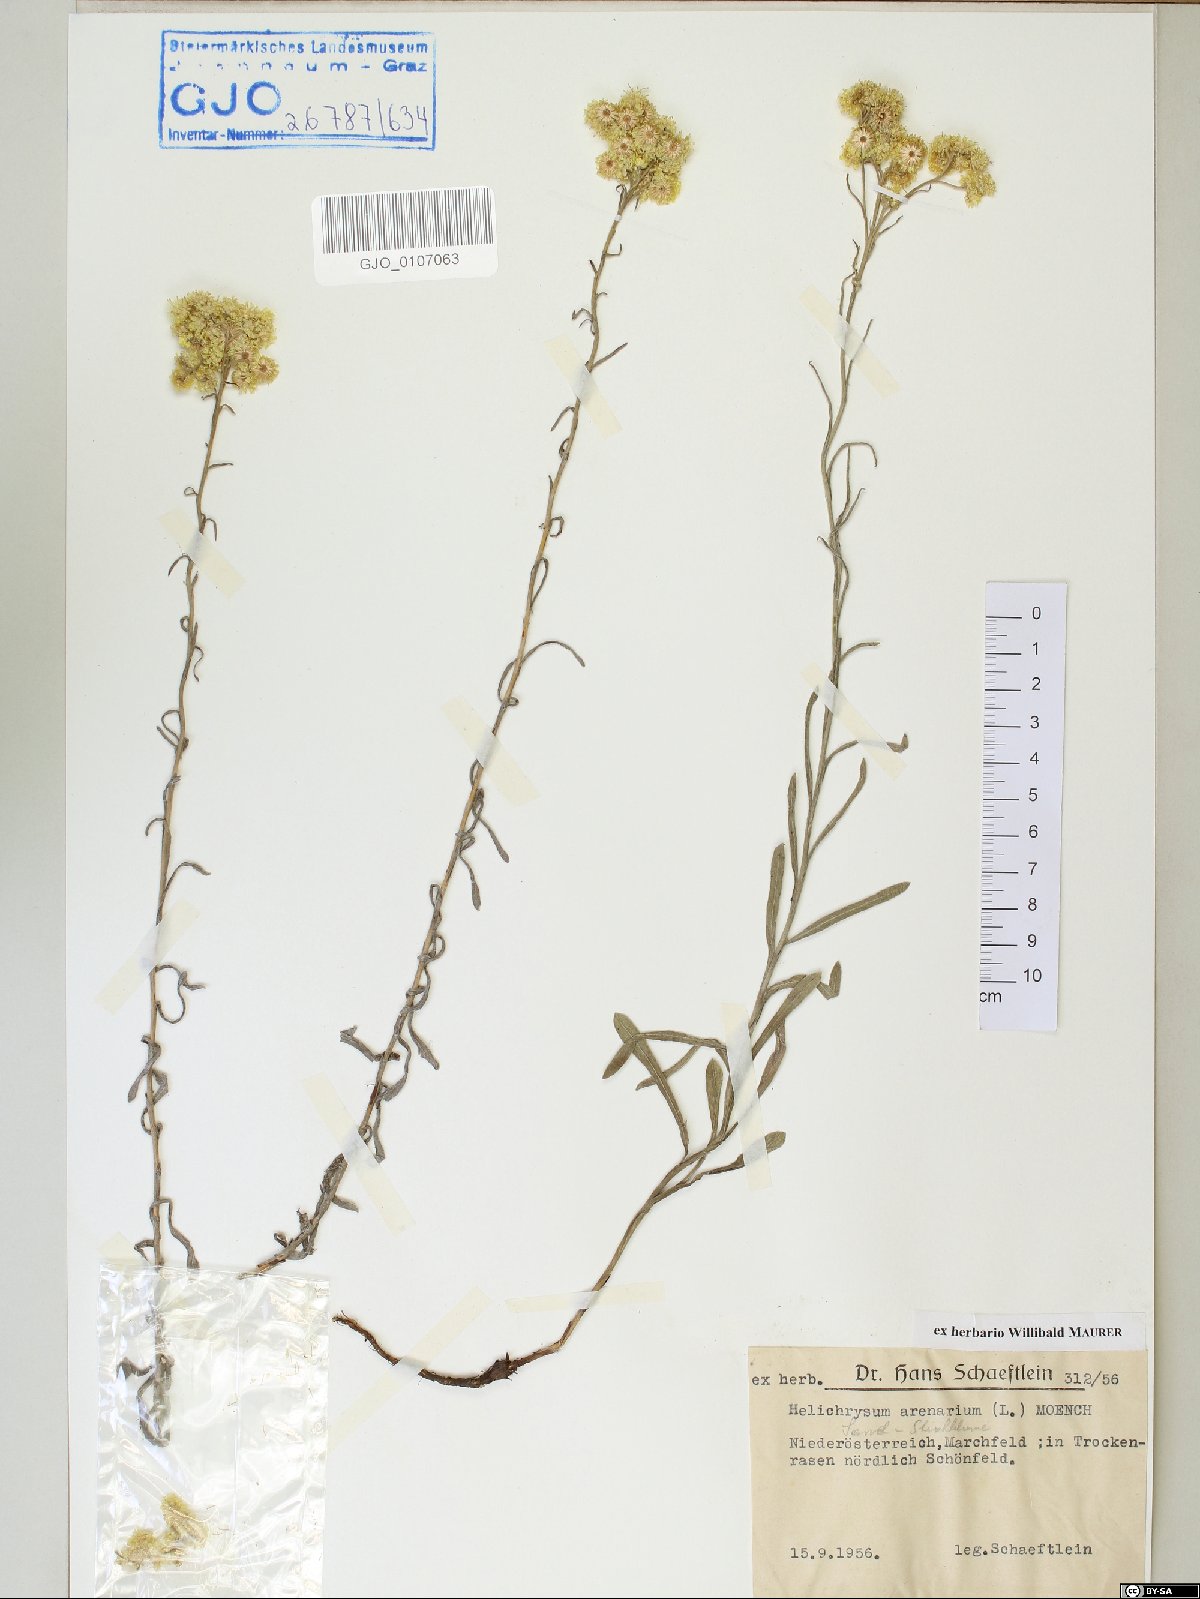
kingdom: Plantae
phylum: Tracheophyta
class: Magnoliopsida
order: Asterales
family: Asteraceae
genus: Helichrysum
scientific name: Helichrysum arenarium
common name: Strawflower
